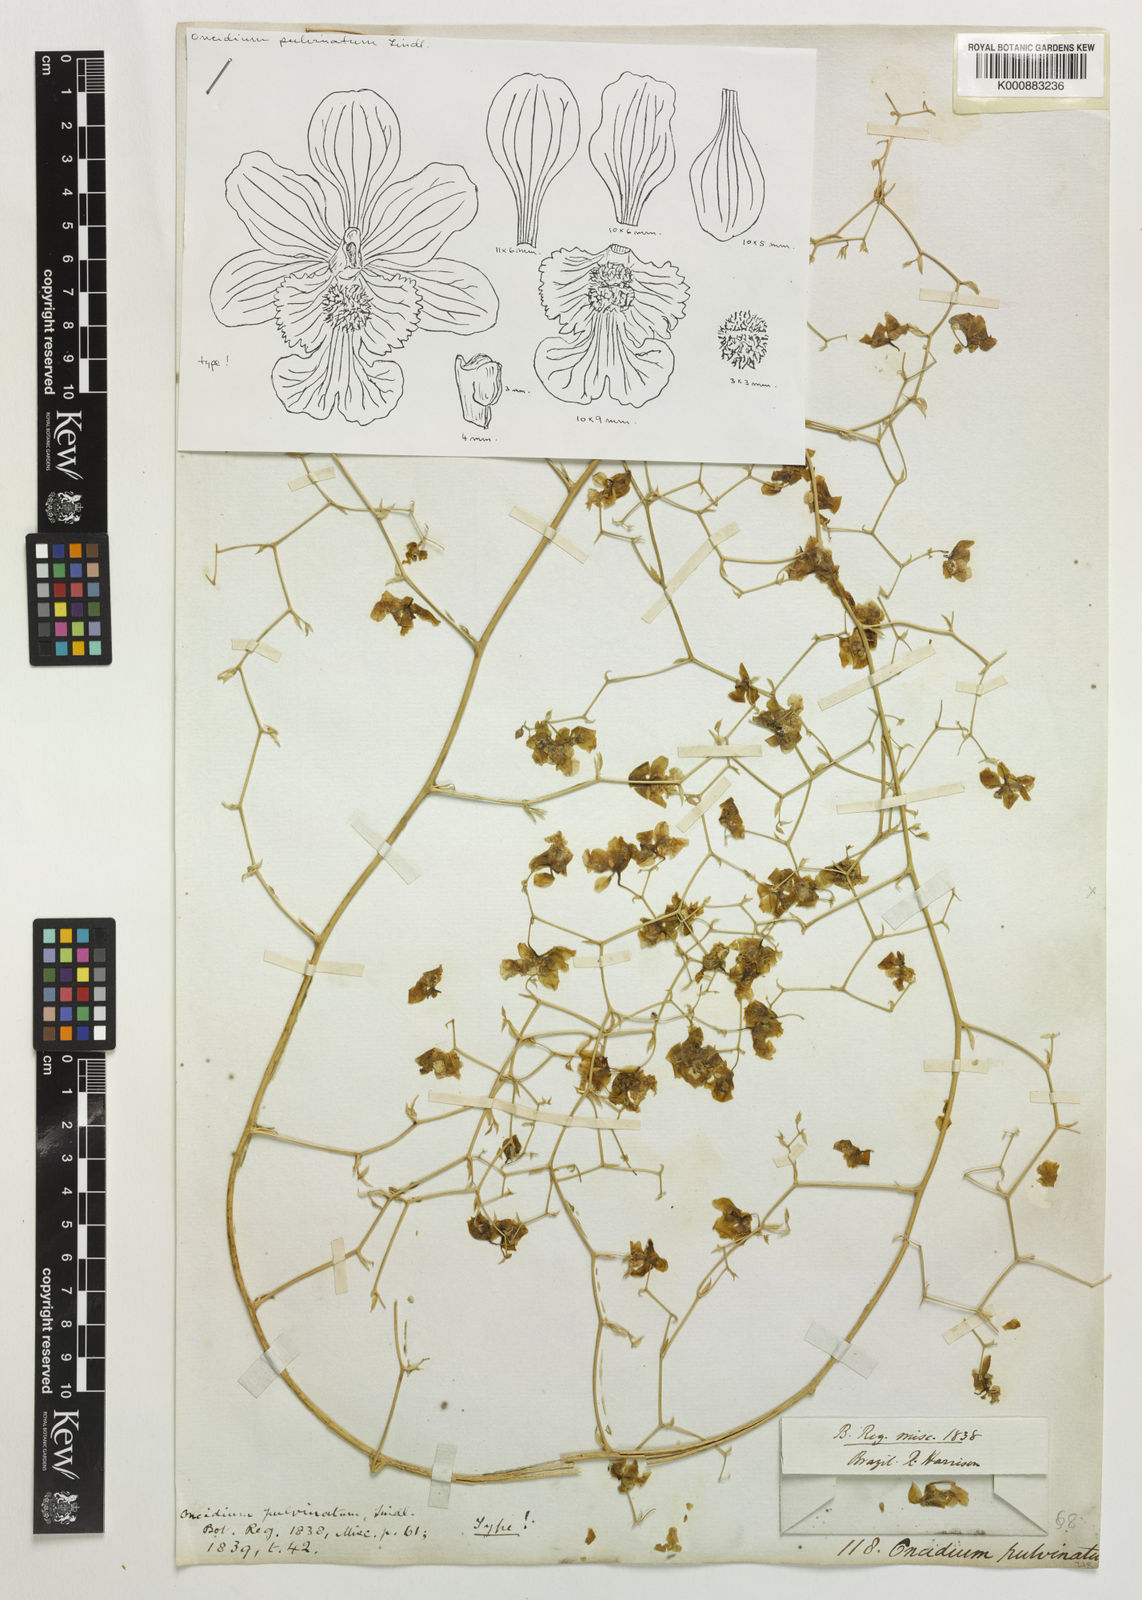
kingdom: Plantae
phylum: Tracheophyta
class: Liliopsida
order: Asparagales
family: Orchidaceae
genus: Grandiphyllum
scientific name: Grandiphyllum divaricatum
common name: Mule-ear orchid
